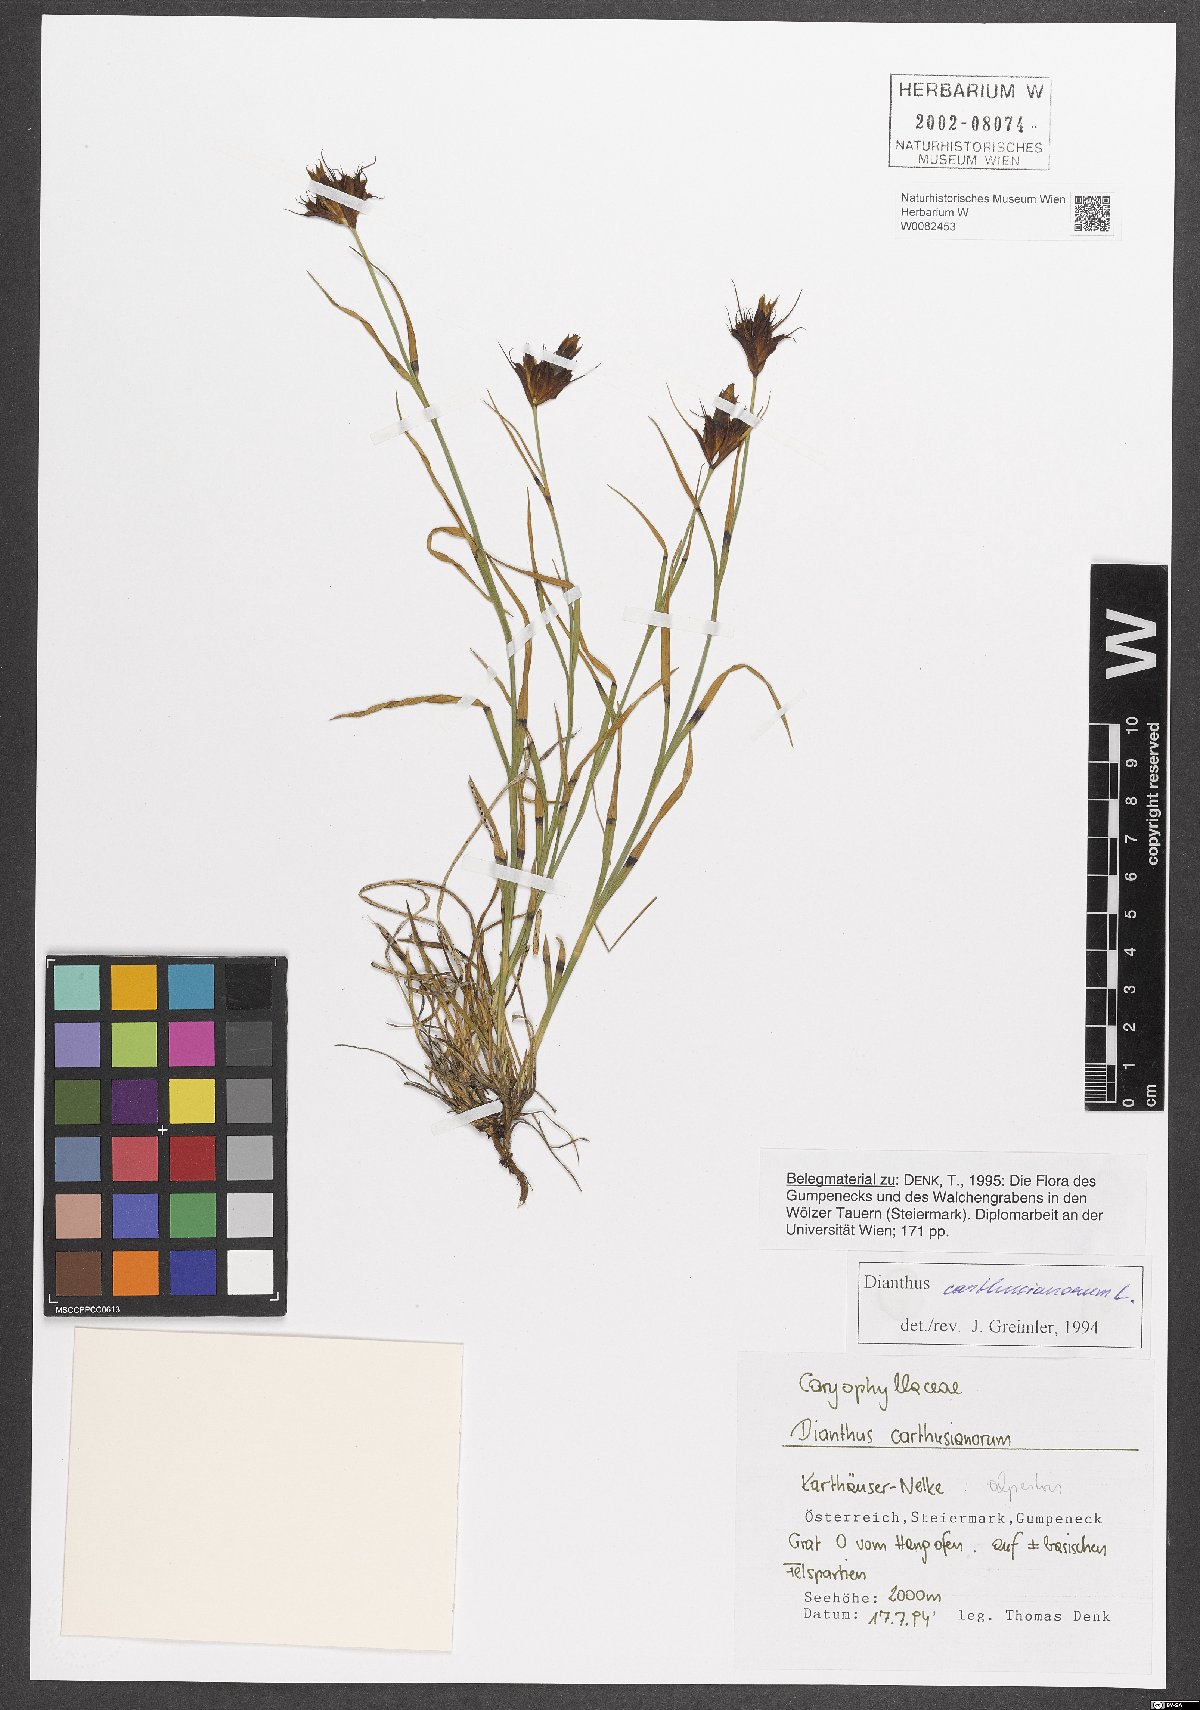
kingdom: Plantae
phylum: Tracheophyta
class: Magnoliopsida
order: Caryophyllales
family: Caryophyllaceae
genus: Dianthus
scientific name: Dianthus carthusianorum
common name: Carthusian pink
